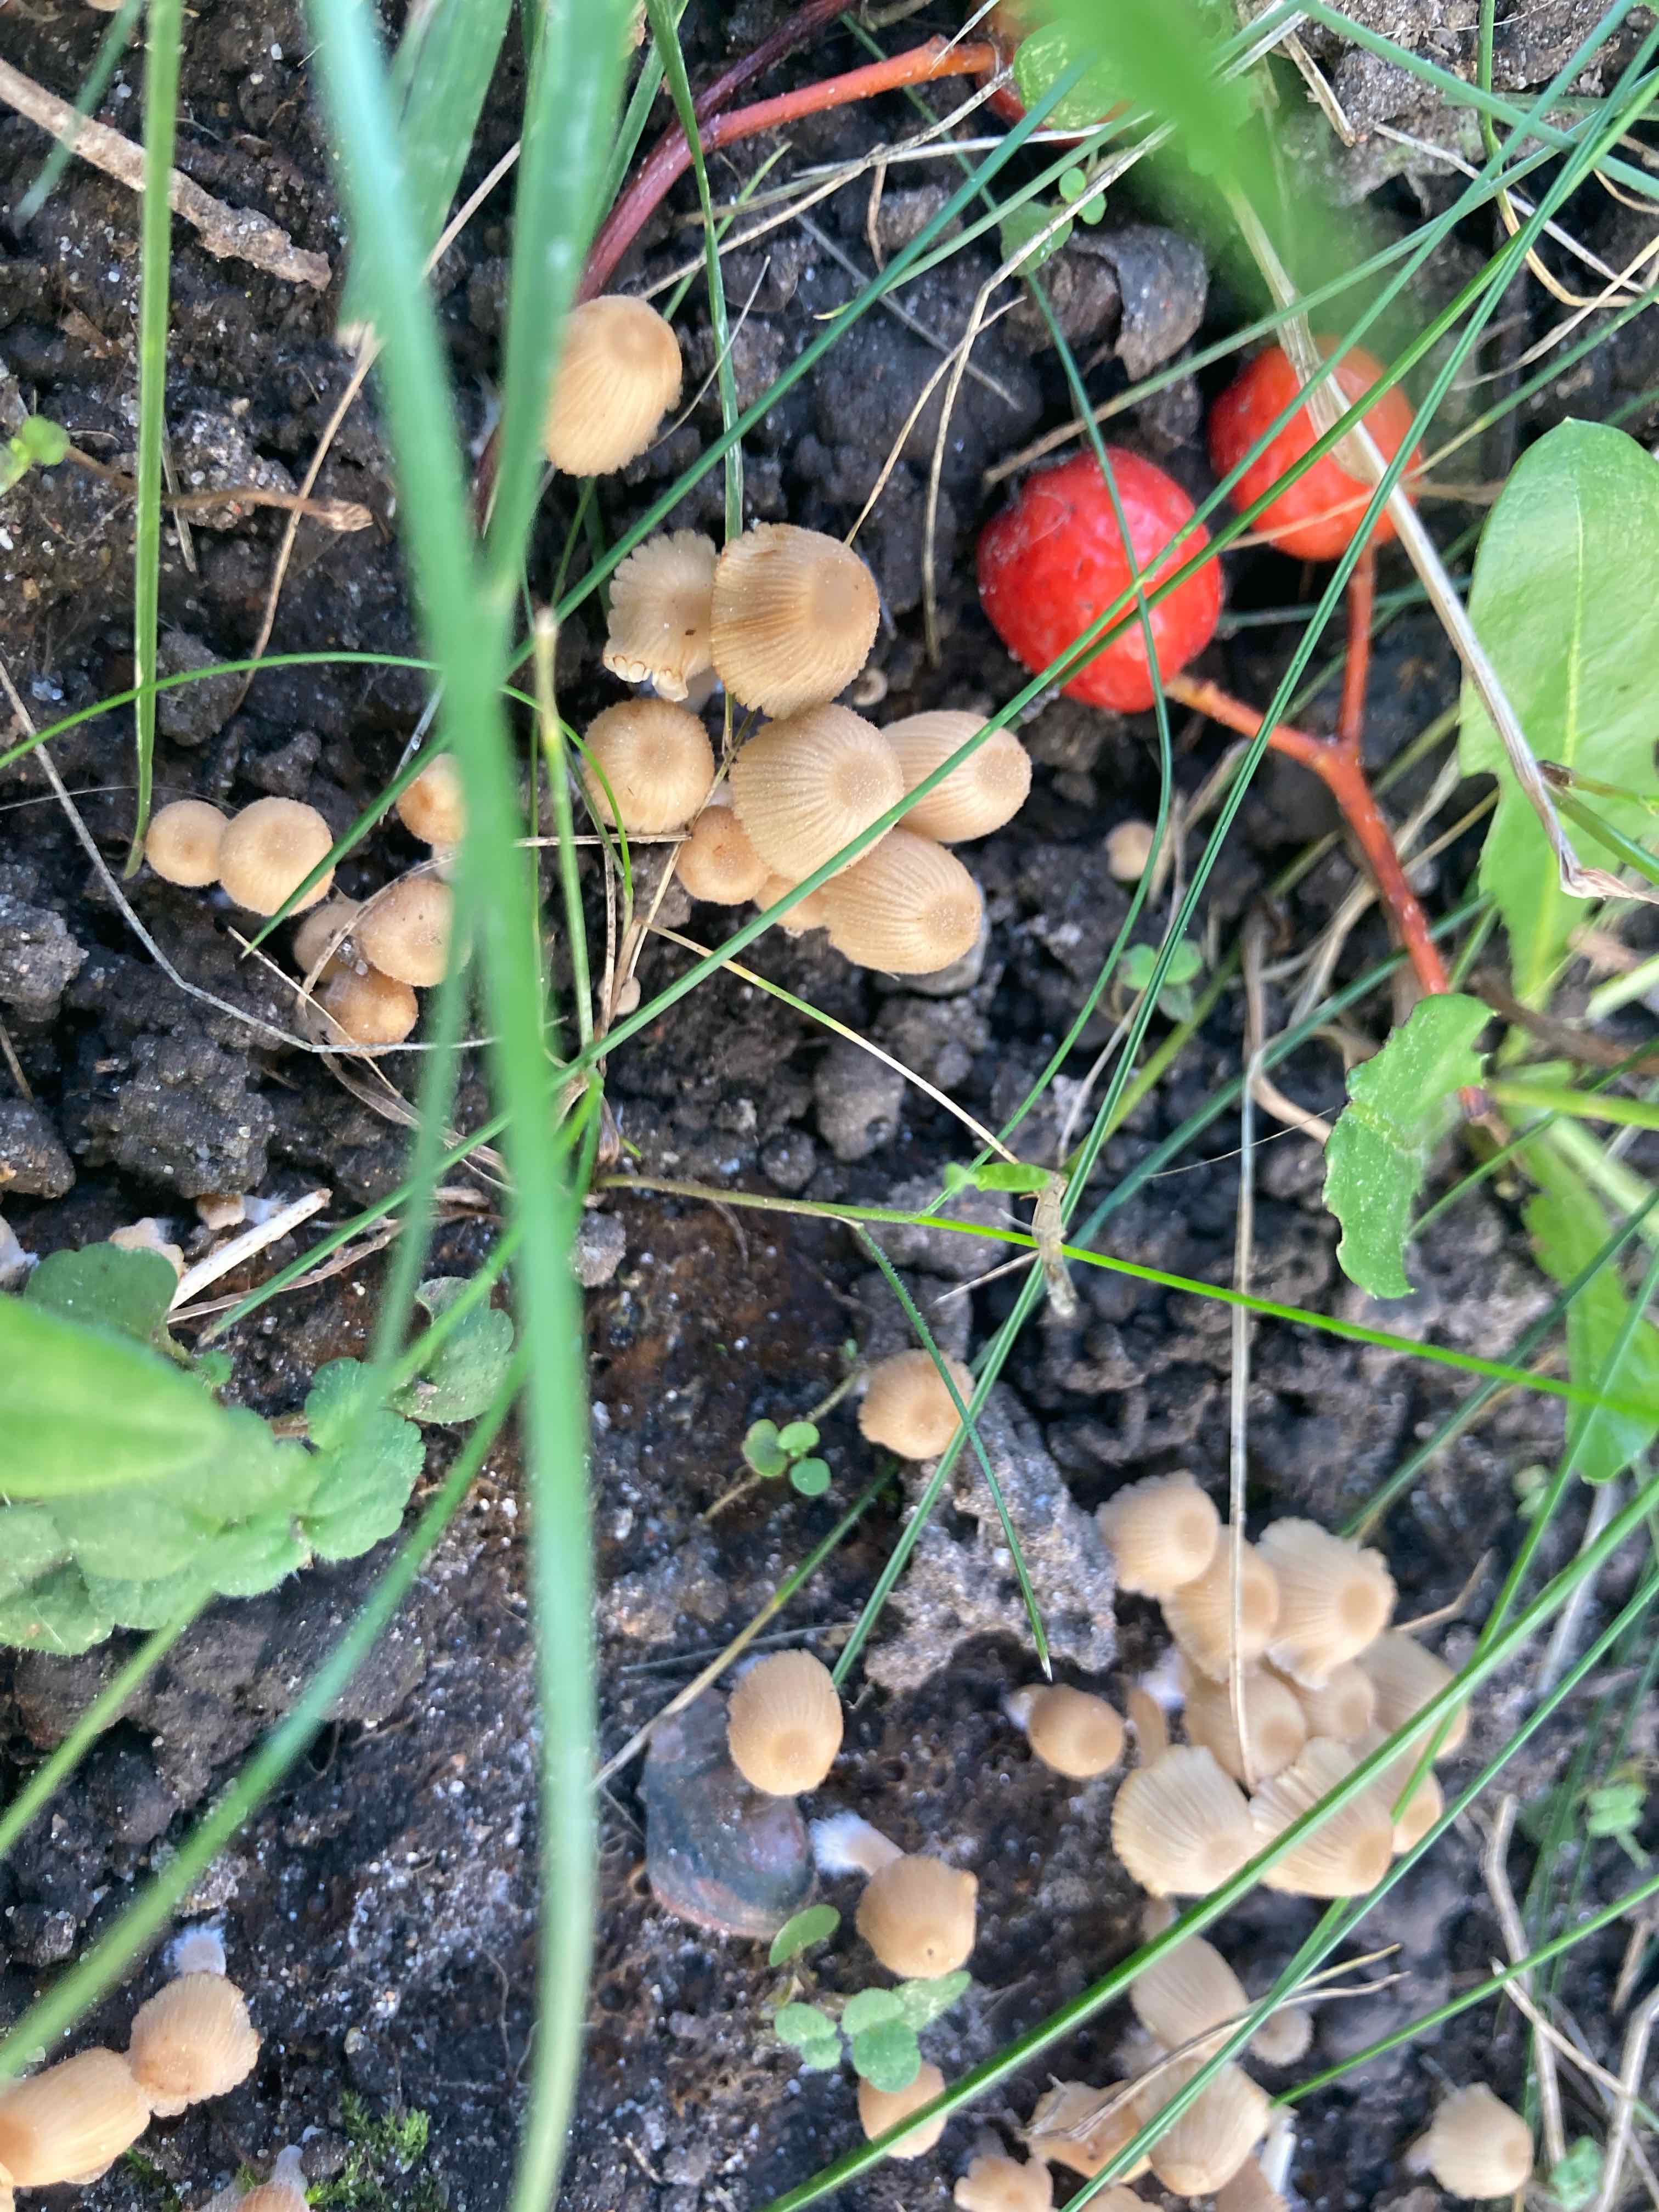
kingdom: Fungi
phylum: Basidiomycota
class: Agaricomycetes
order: Agaricales
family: Psathyrellaceae
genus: Coprinellus
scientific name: Coprinellus disseminatus
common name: bredsået blækhat
